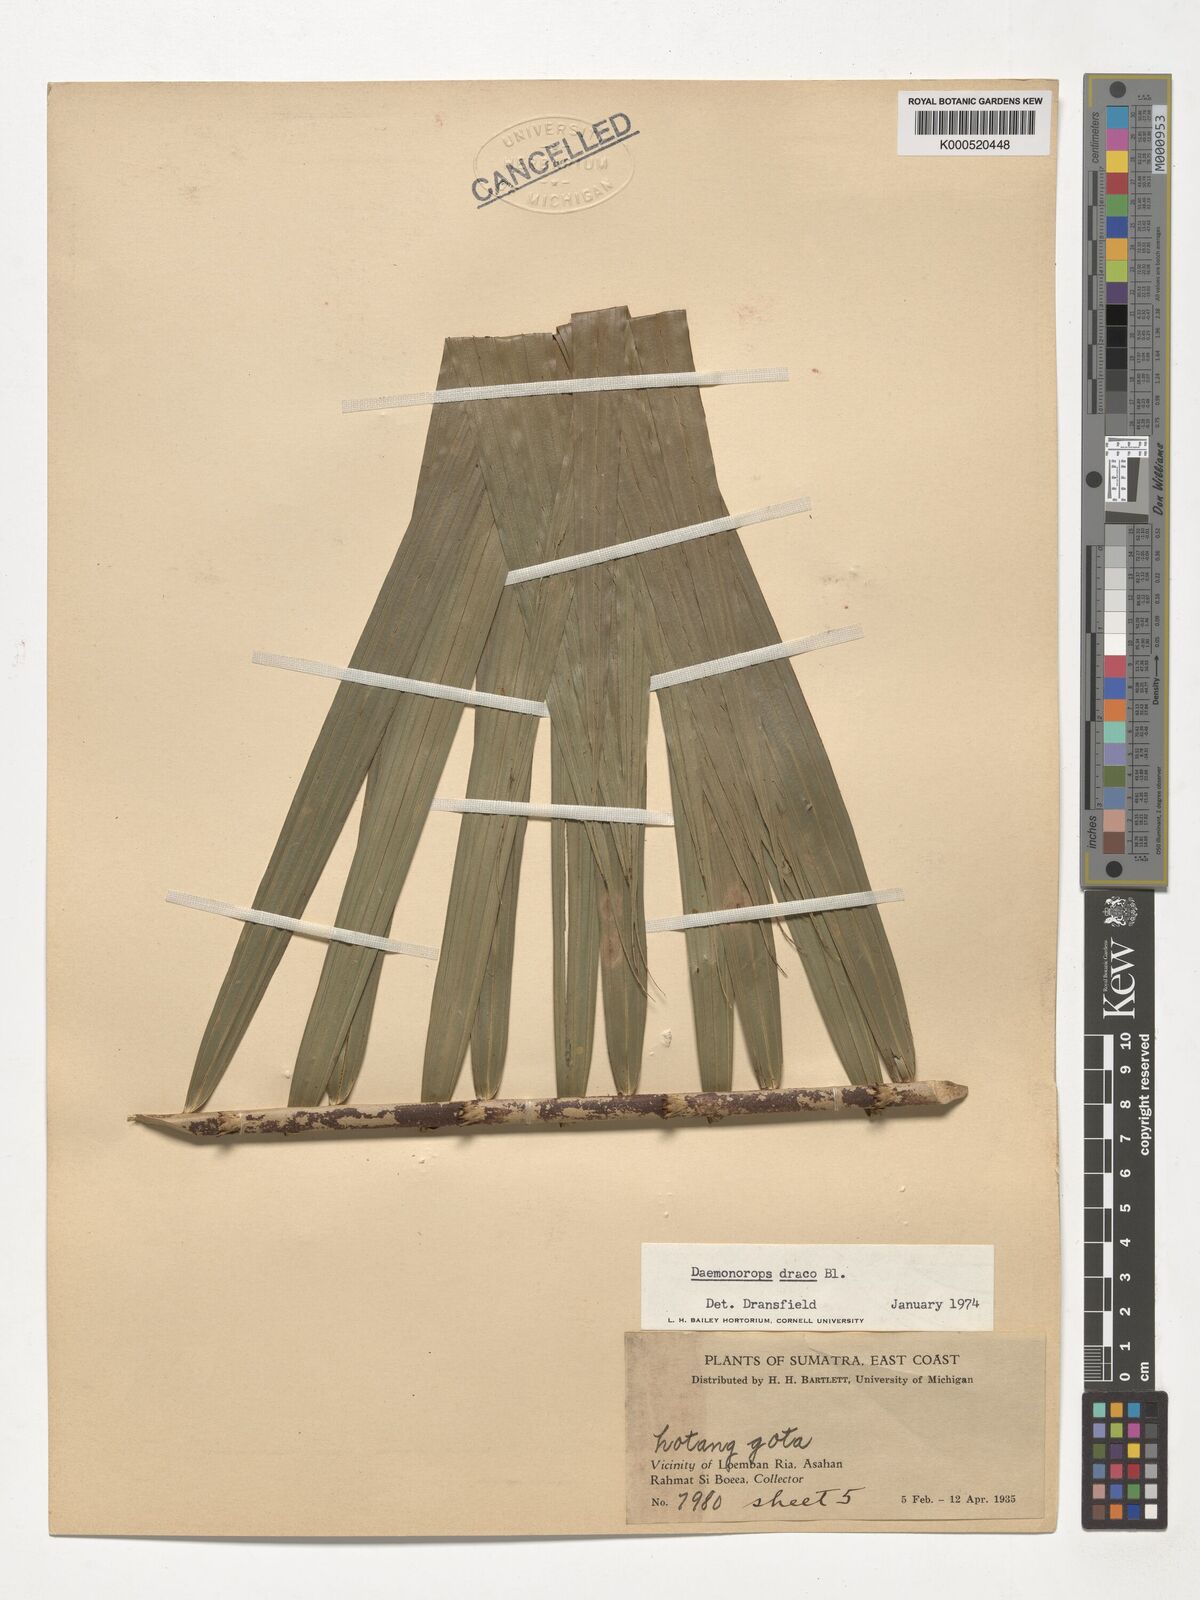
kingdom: Plantae
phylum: Tracheophyta
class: Liliopsida
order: Arecales
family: Arecaceae
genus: Calamus
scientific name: Calamus draco
